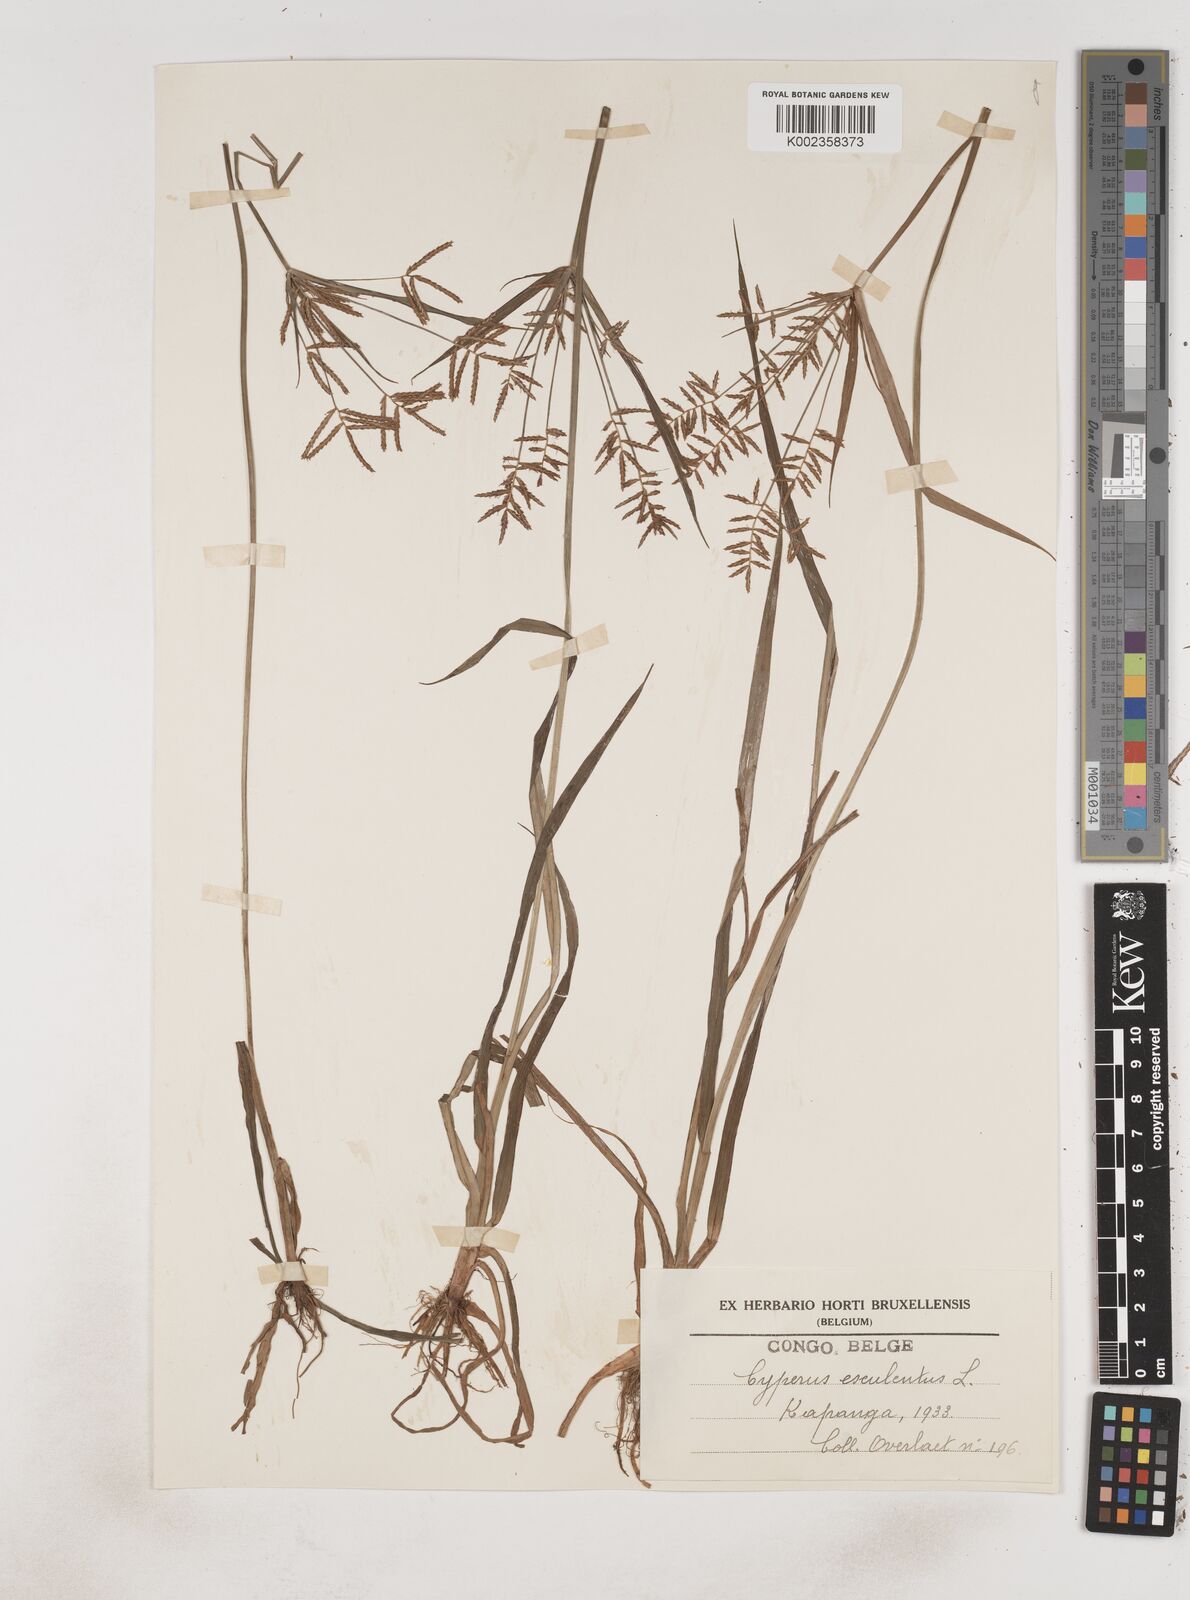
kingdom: Plantae
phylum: Tracheophyta
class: Liliopsida
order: Poales
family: Cyperaceae
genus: Cyperus
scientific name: Cyperus esculentus
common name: Yellow nutsedge
